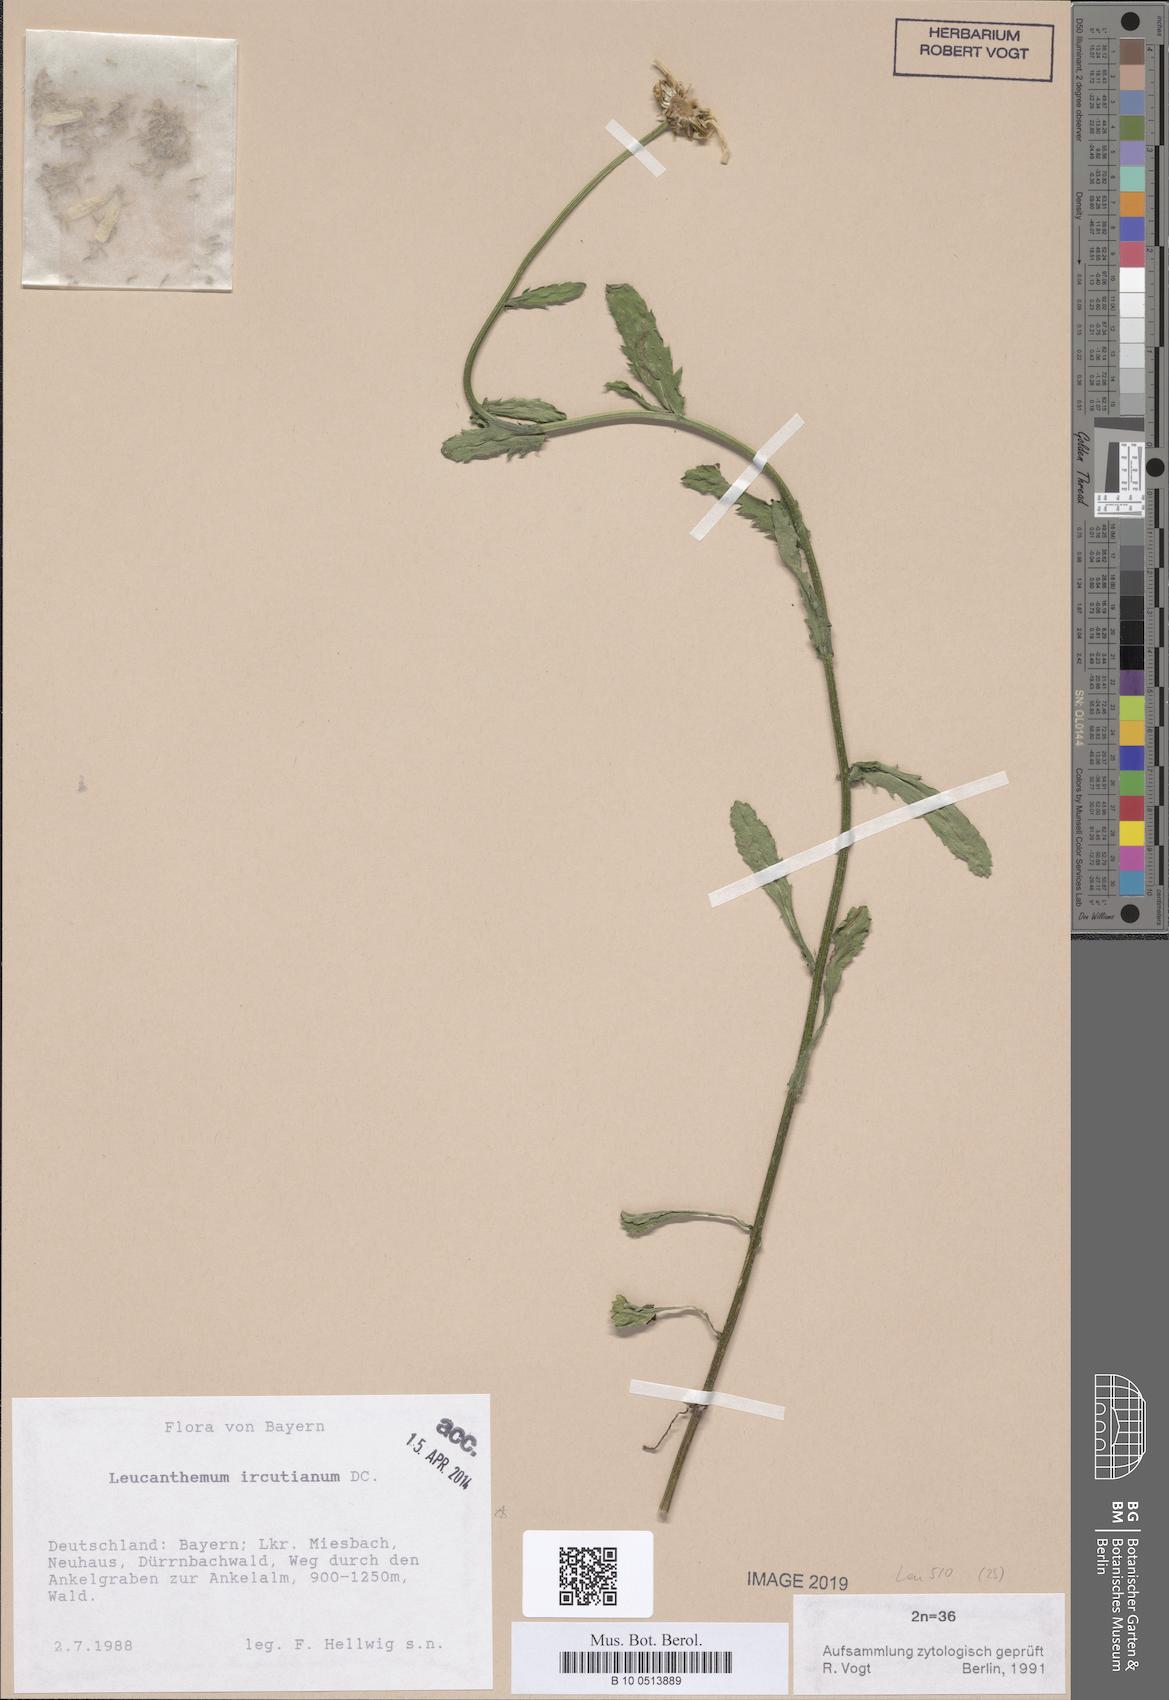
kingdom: Plantae
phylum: Tracheophyta
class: Magnoliopsida
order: Asterales
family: Asteraceae
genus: Leucanthemum
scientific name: Leucanthemum ircutianum
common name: Daisy
